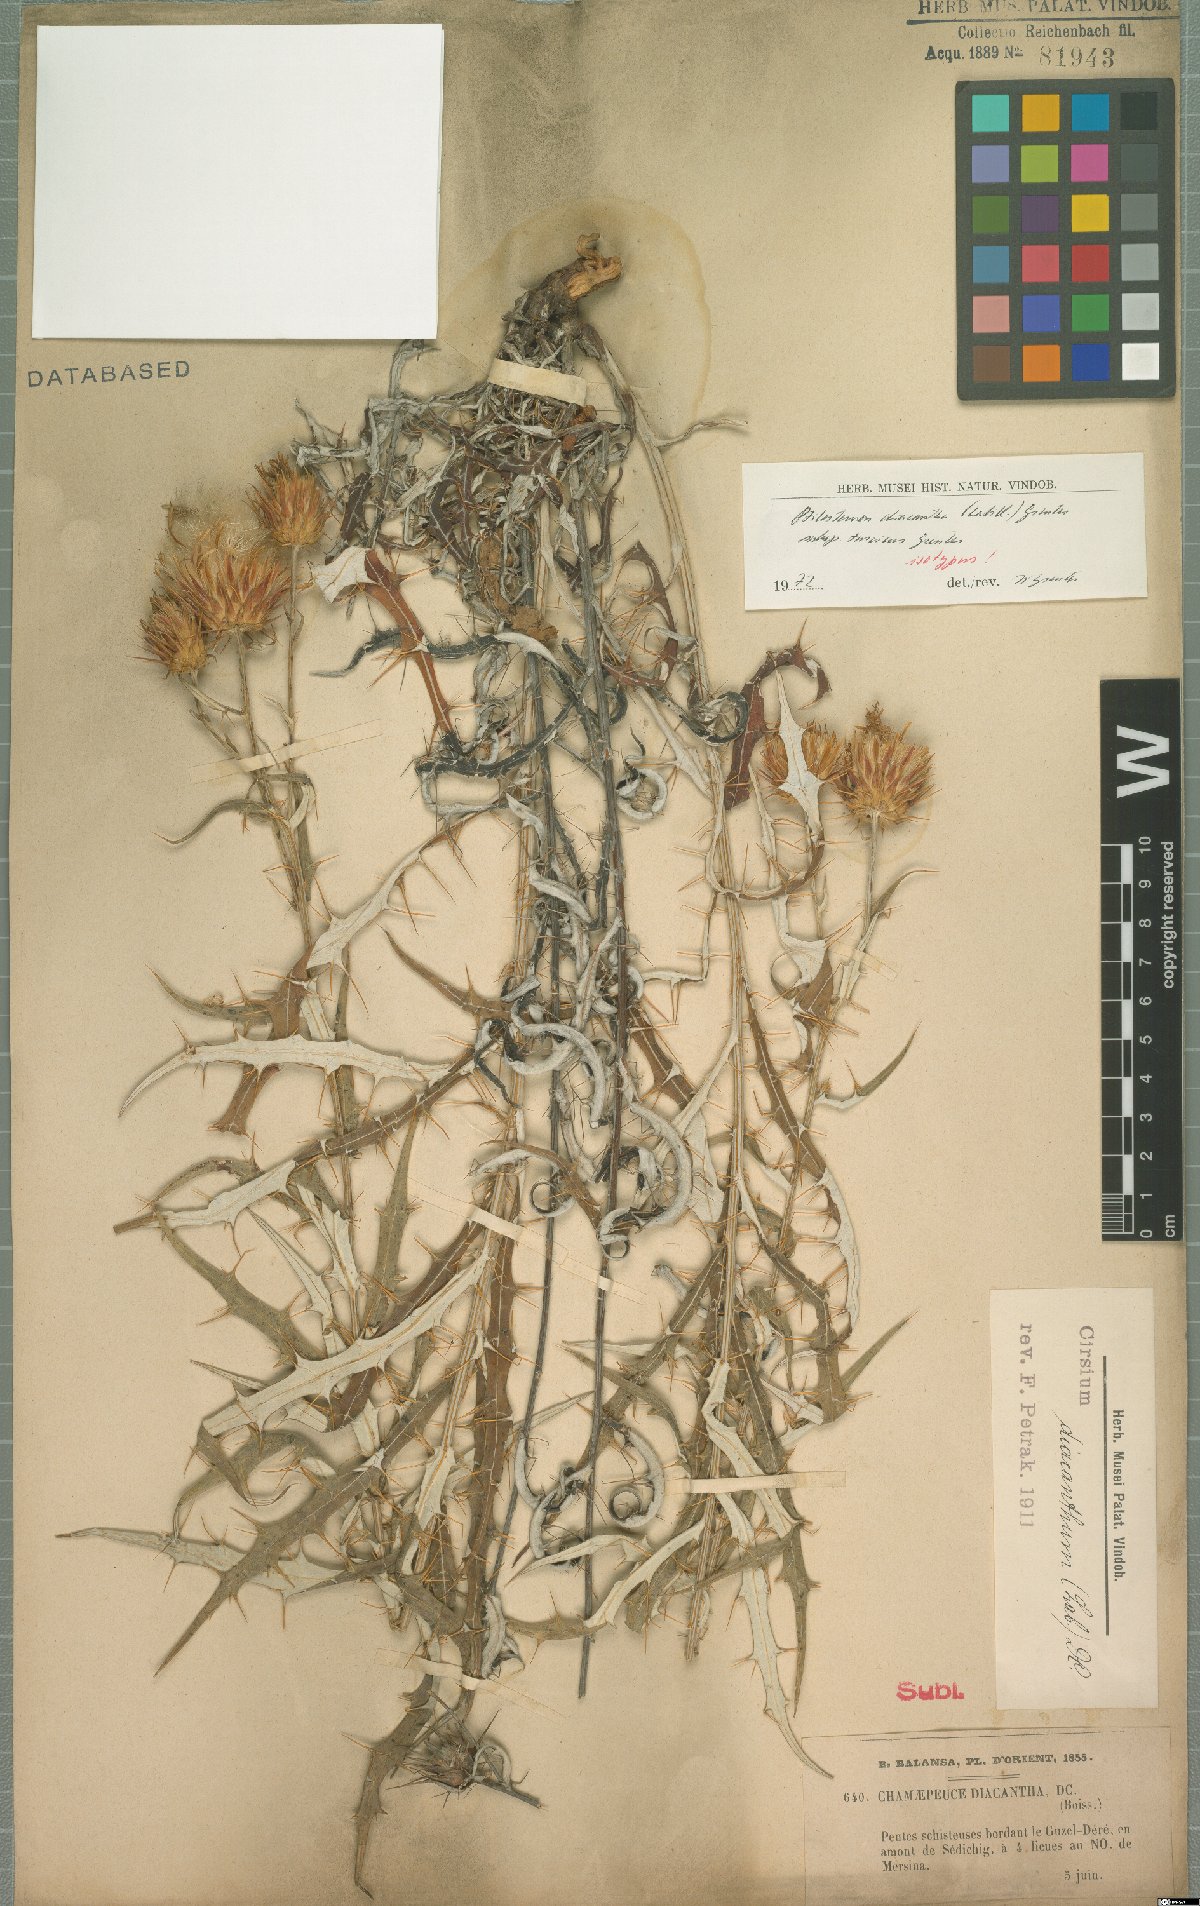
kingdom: Plantae
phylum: Tracheophyta
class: Magnoliopsida
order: Asterales
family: Asteraceae
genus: Ptilostemon
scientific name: Ptilostemon diacanthus
